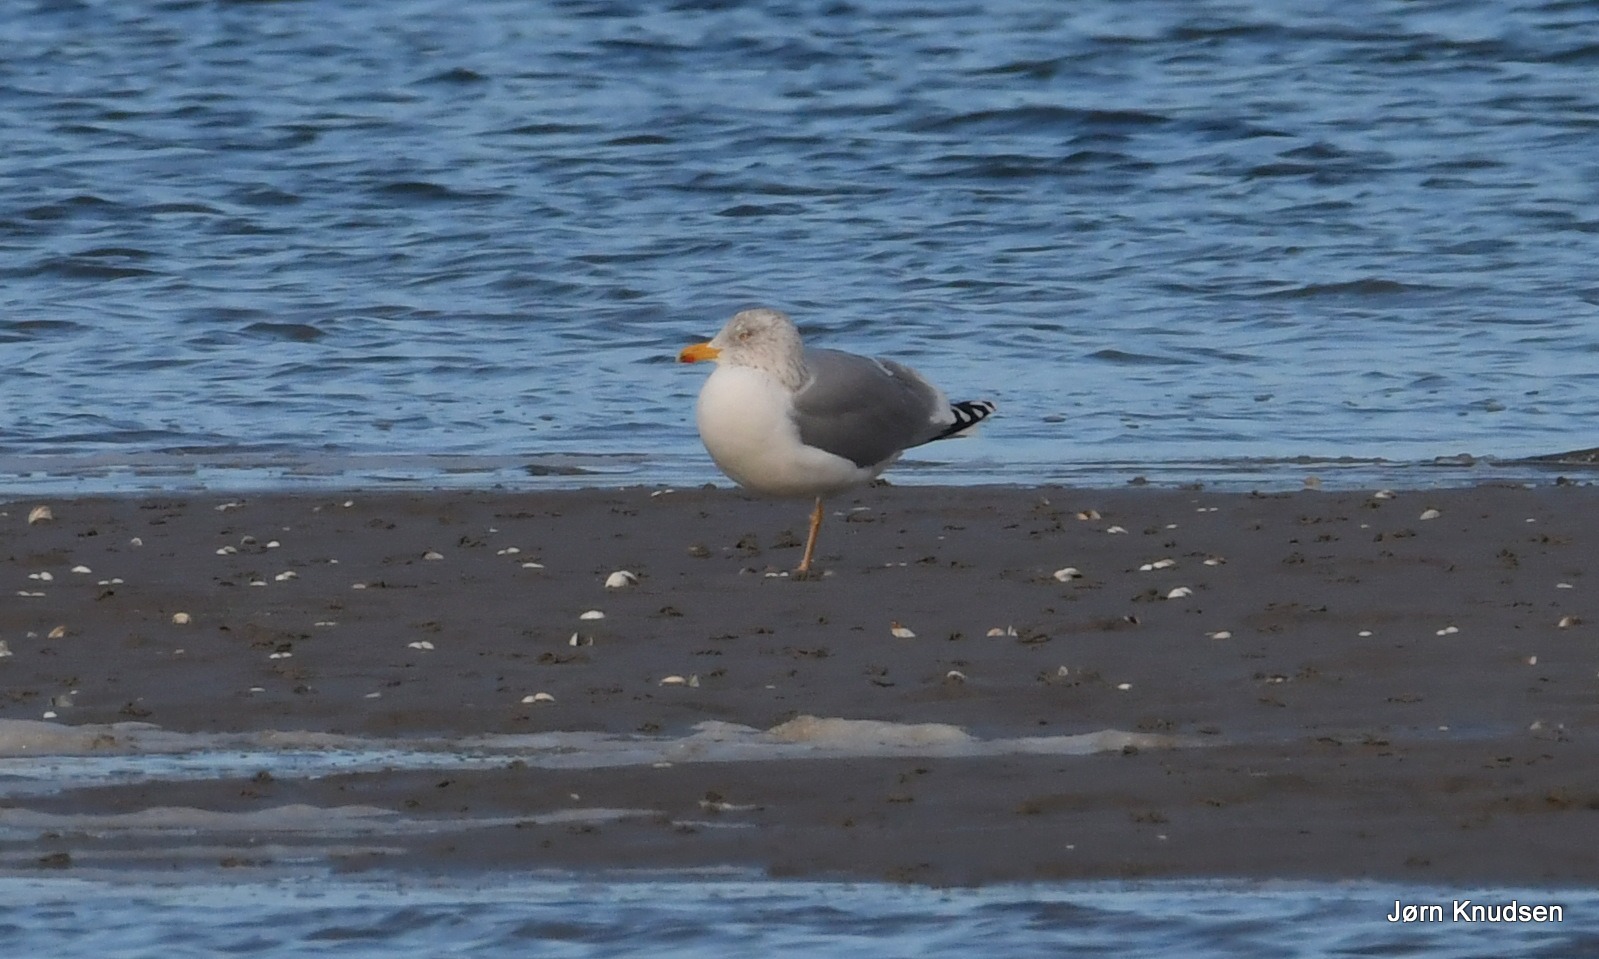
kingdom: Animalia
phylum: Chordata
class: Aves
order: Charadriiformes
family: Laridae
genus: Larus
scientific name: Larus argentatus
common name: Sølvmåge
